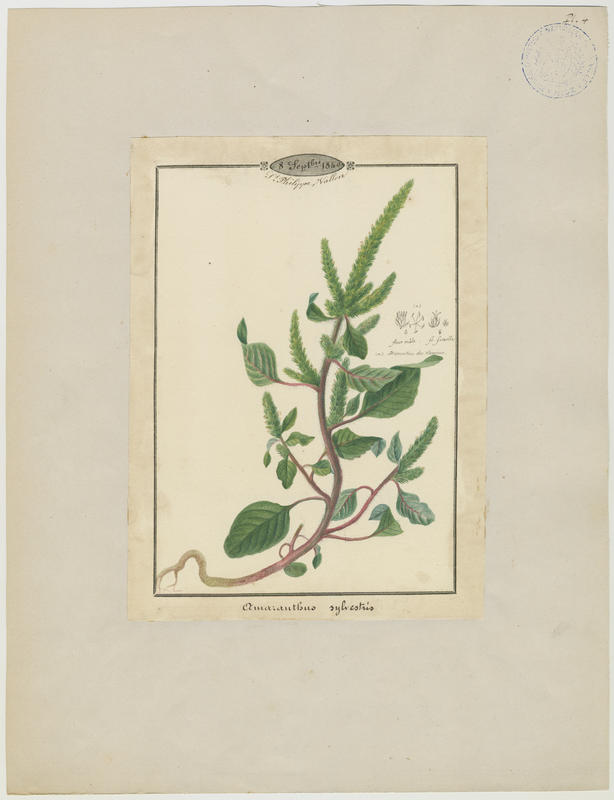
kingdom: Plantae
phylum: Tracheophyta
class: Magnoliopsida
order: Caryophyllales
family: Amaranthaceae
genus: Amaranthus
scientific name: Amaranthus graecizans
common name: Mediterranean amaranth
